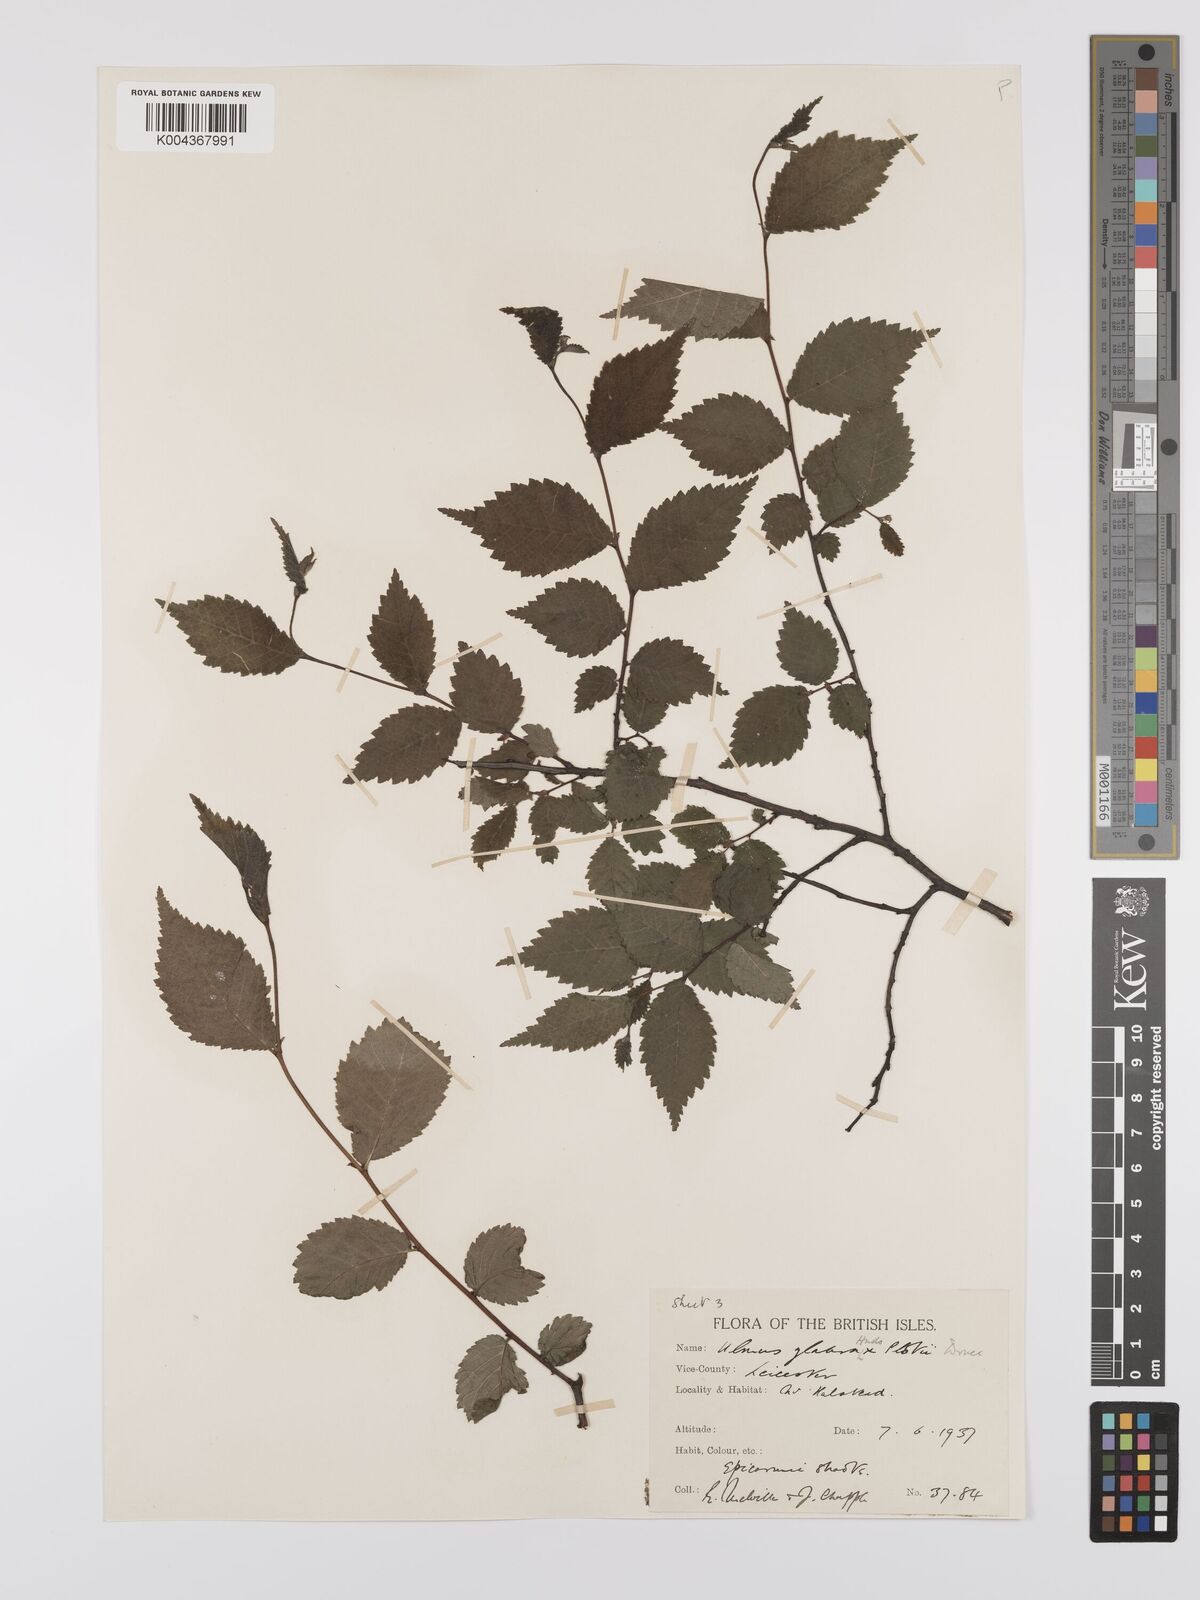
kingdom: Plantae
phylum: Tracheophyta
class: Magnoliopsida
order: Rosales
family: Ulmaceae
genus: Ulmus
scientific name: Ulmus
